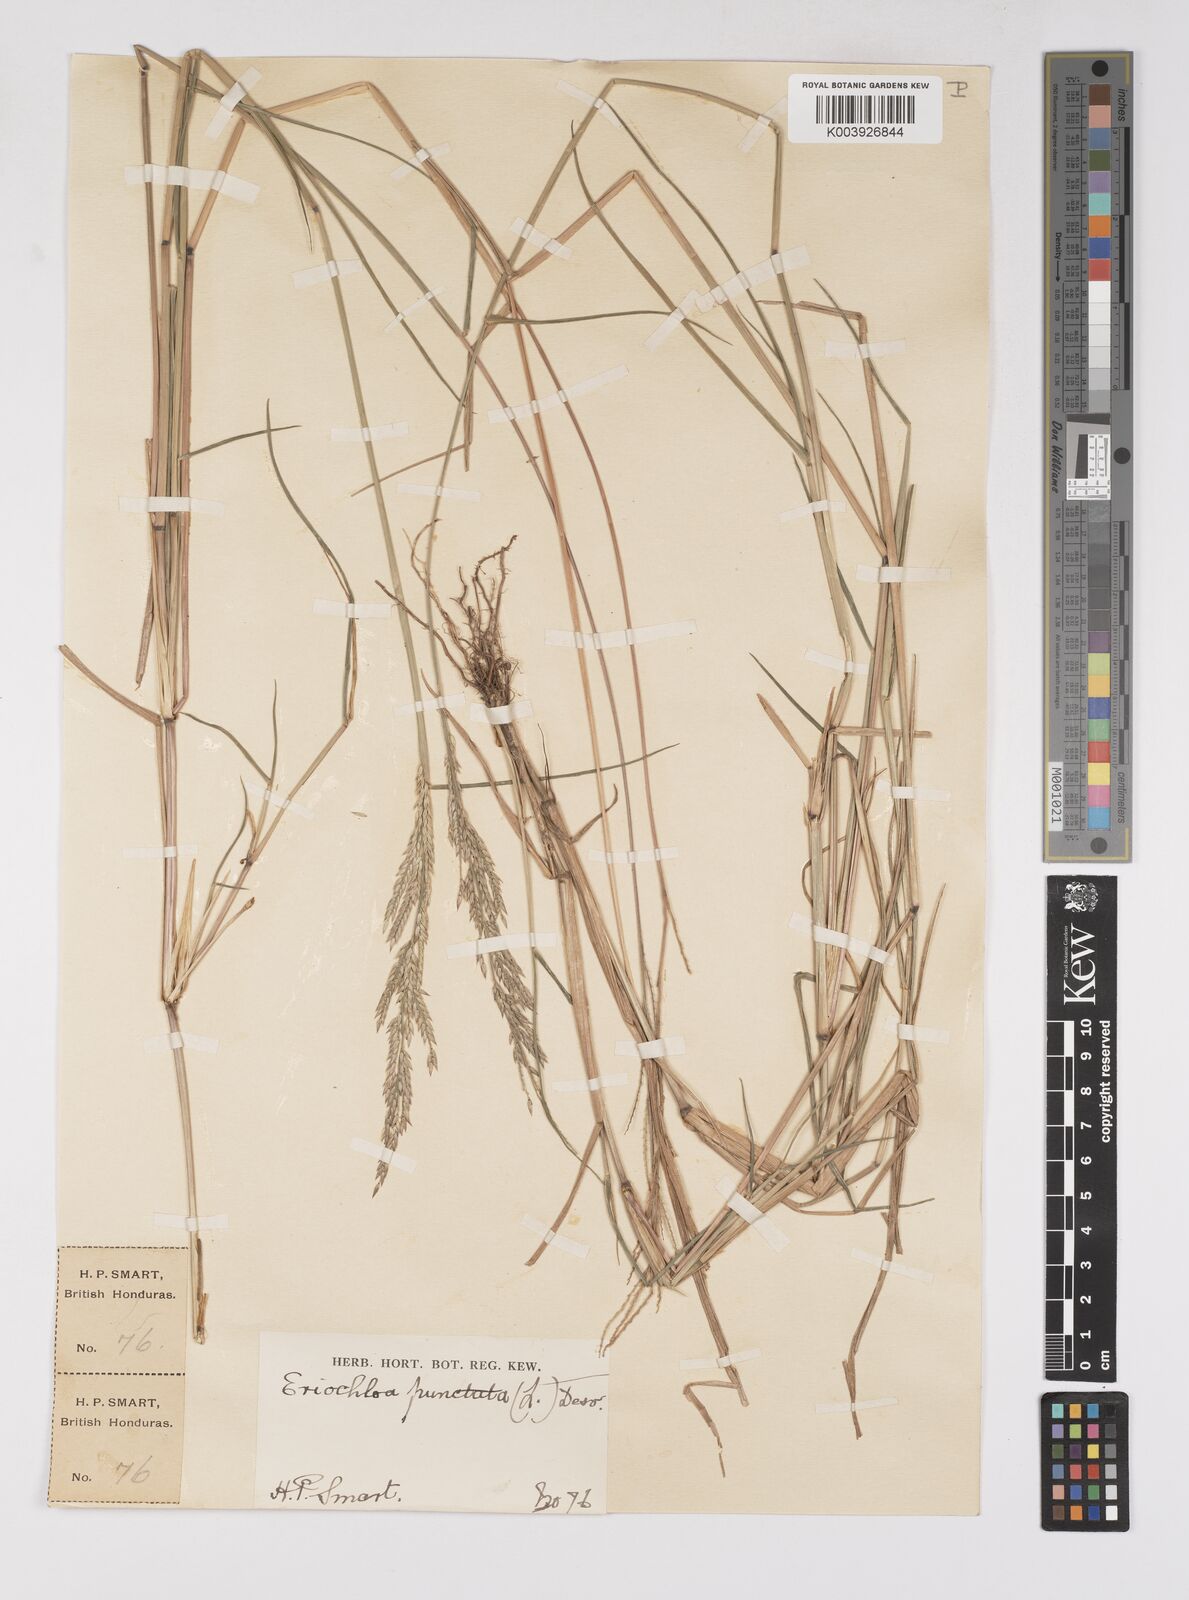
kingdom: Plantae
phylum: Tracheophyta
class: Liliopsida
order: Poales
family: Poaceae
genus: Eriochloa
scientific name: Eriochloa punctata
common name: Louisiana cupgrass
